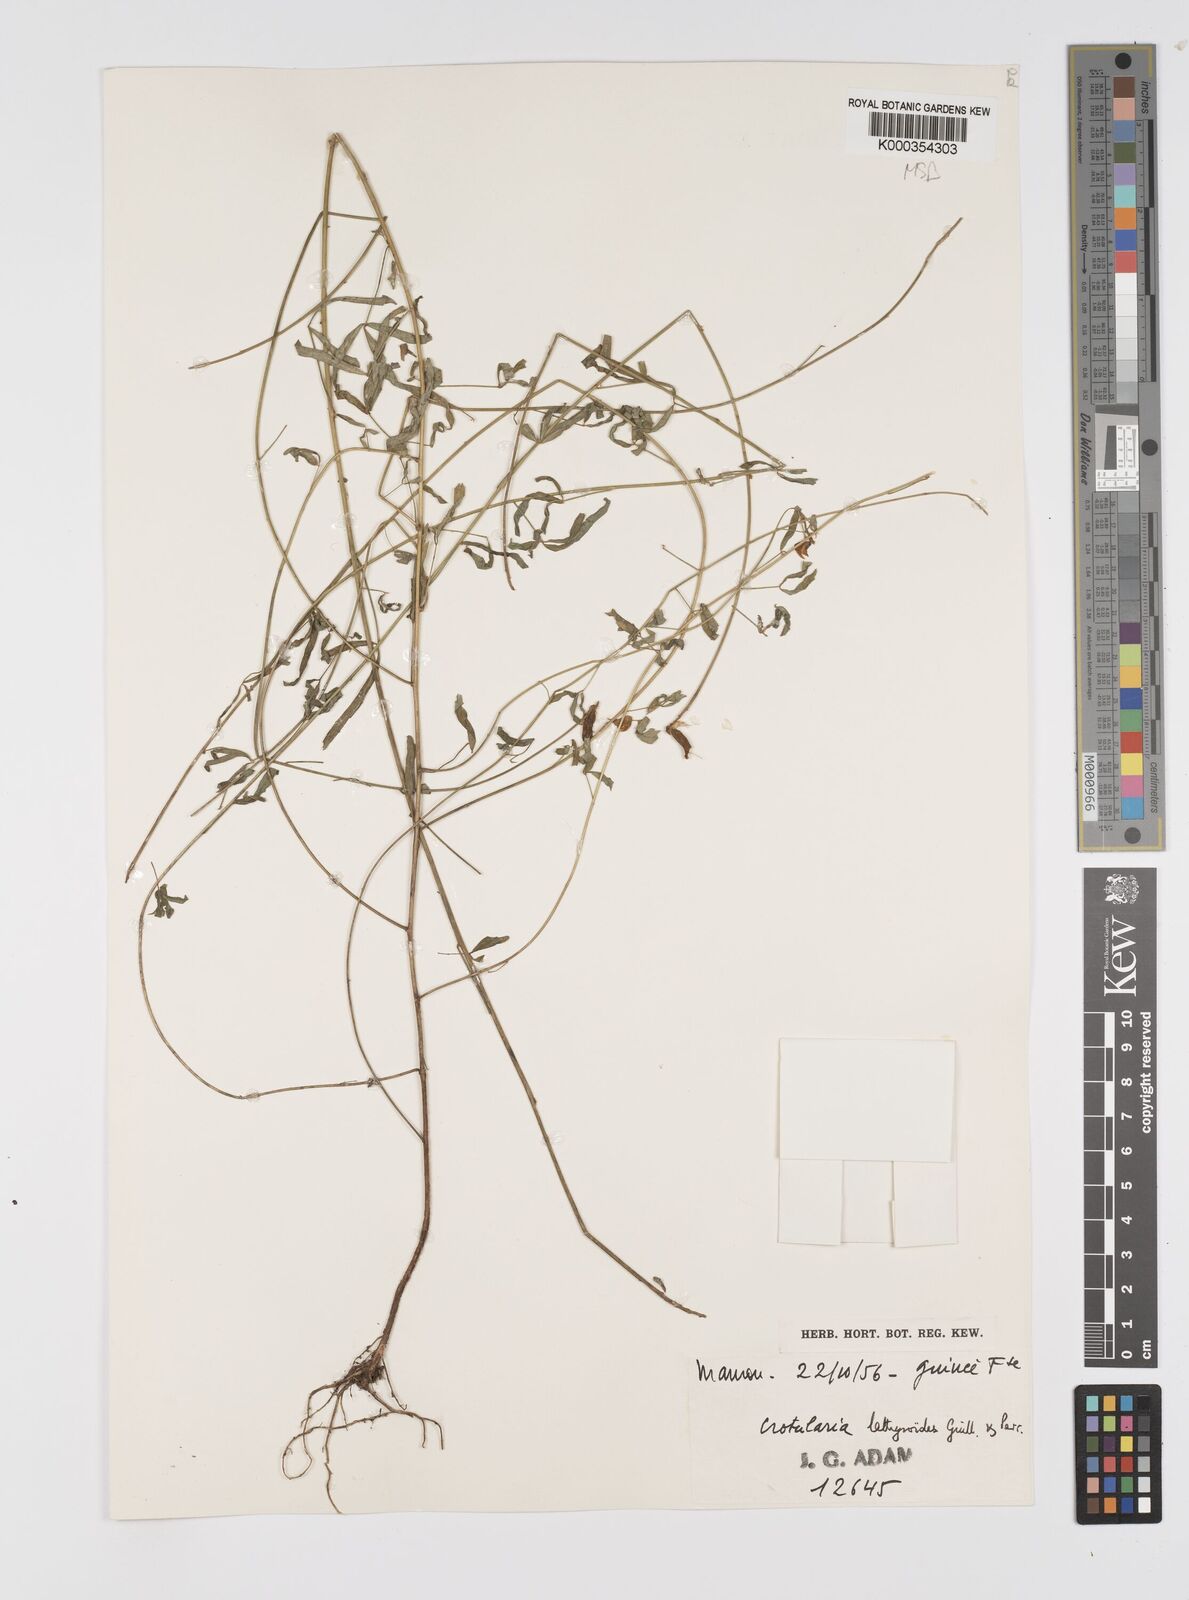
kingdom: Plantae
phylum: Tracheophyta
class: Magnoliopsida
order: Fabales
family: Fabaceae
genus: Crotalaria
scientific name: Crotalaria lathyroides
